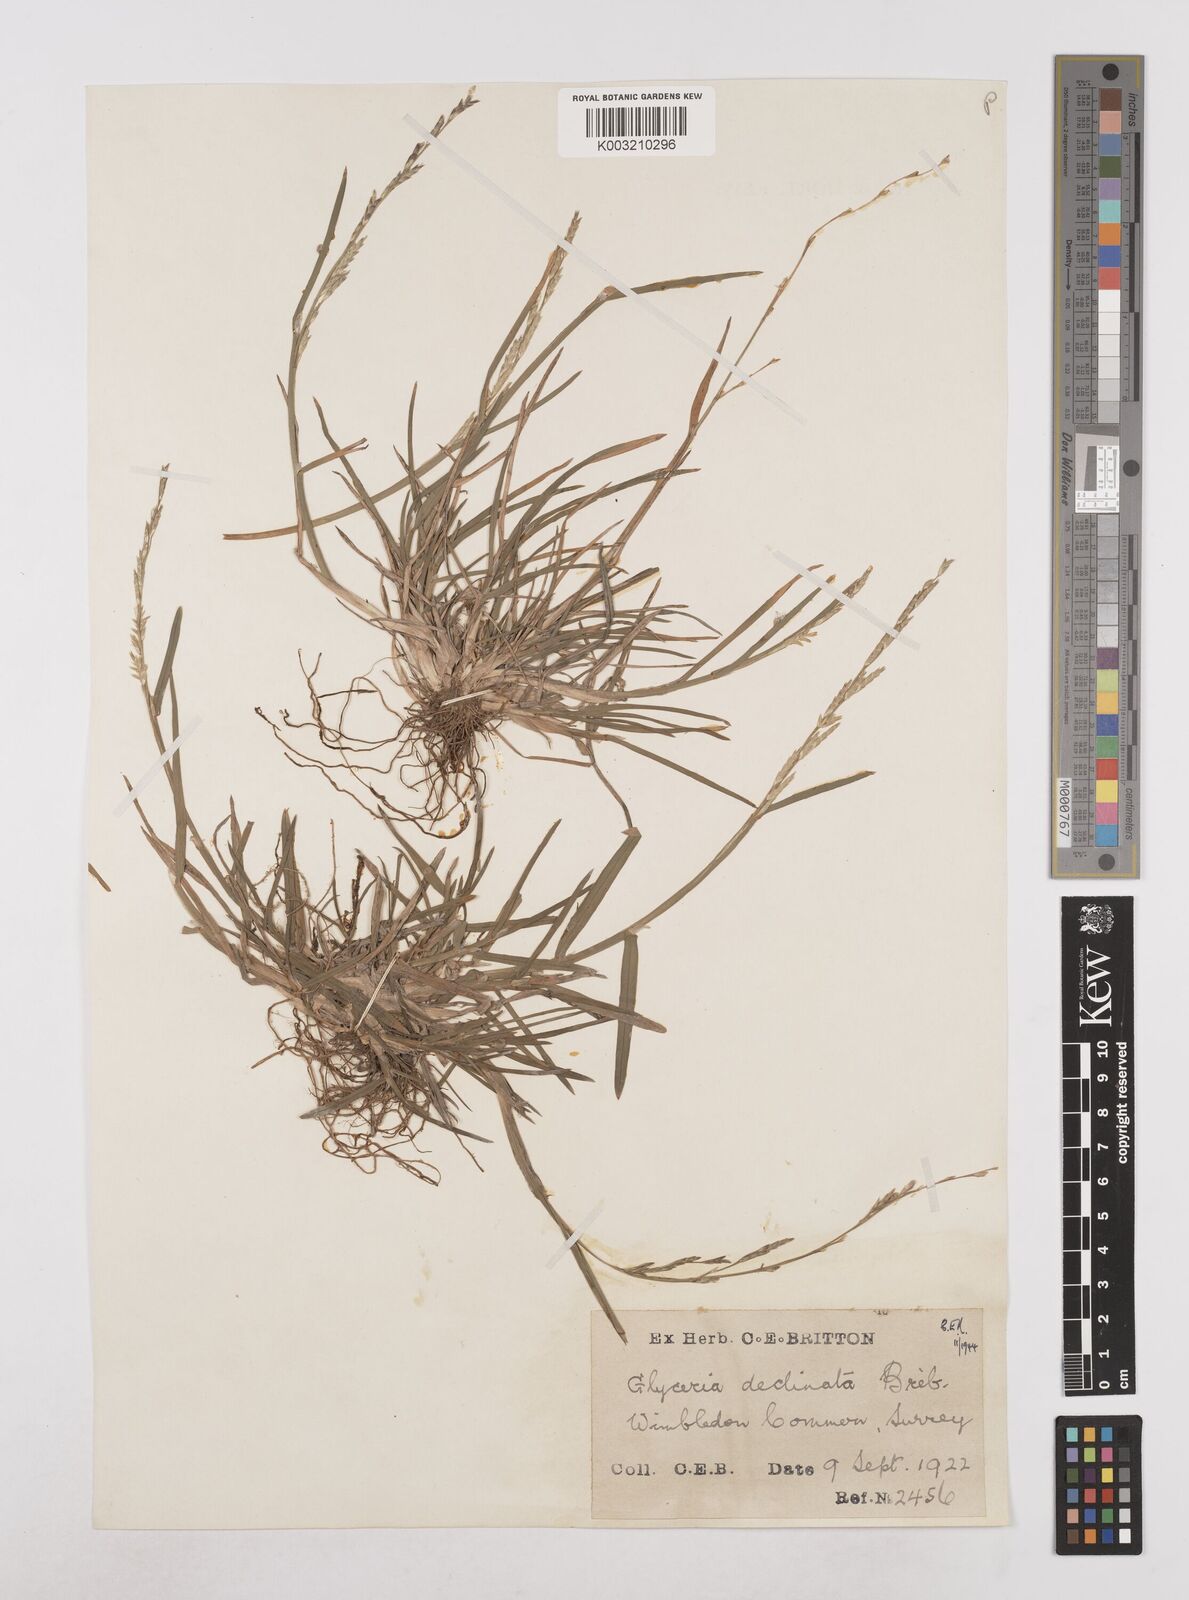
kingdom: Plantae
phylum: Tracheophyta
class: Liliopsida
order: Poales
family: Poaceae
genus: Glyceria
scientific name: Glyceria declinata
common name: Small sweet-grass
